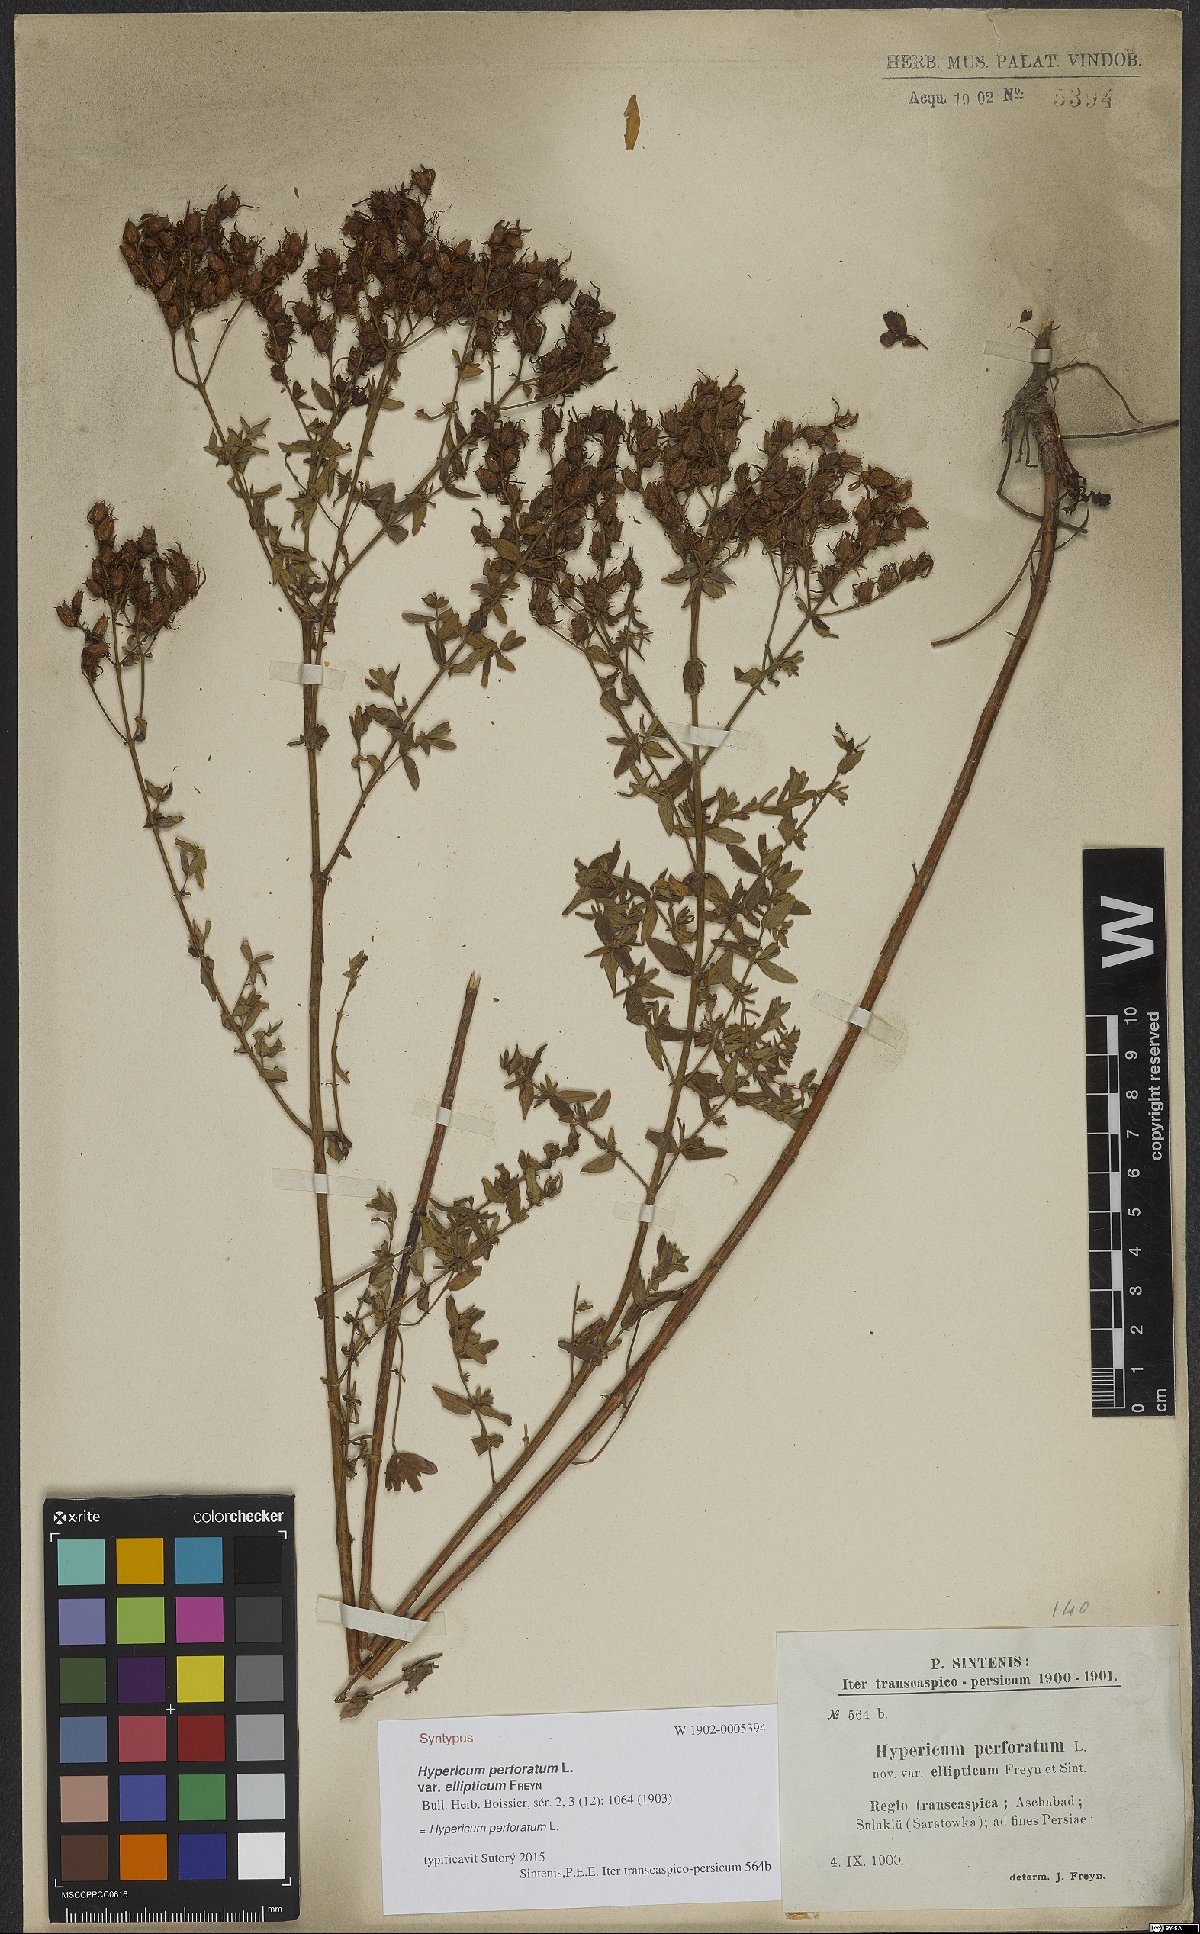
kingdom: Plantae
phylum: Tracheophyta
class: Magnoliopsida
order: Malpighiales
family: Hypericaceae
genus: Hypericum
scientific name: Hypericum perforatum
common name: Common st. johnswort
